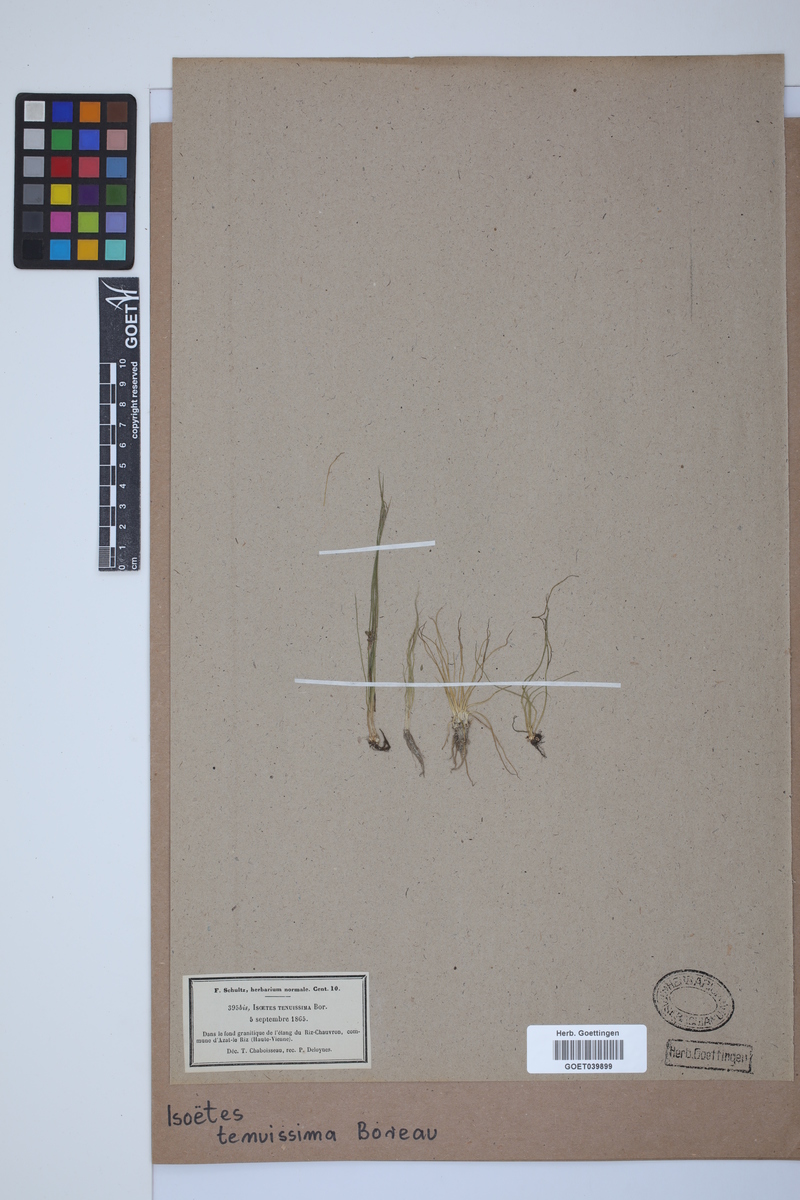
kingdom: Plantae
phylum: Tracheophyta
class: Lycopodiopsida
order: Isoetales
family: Isoetaceae
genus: Isoetes
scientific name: Isoetes muelleri
